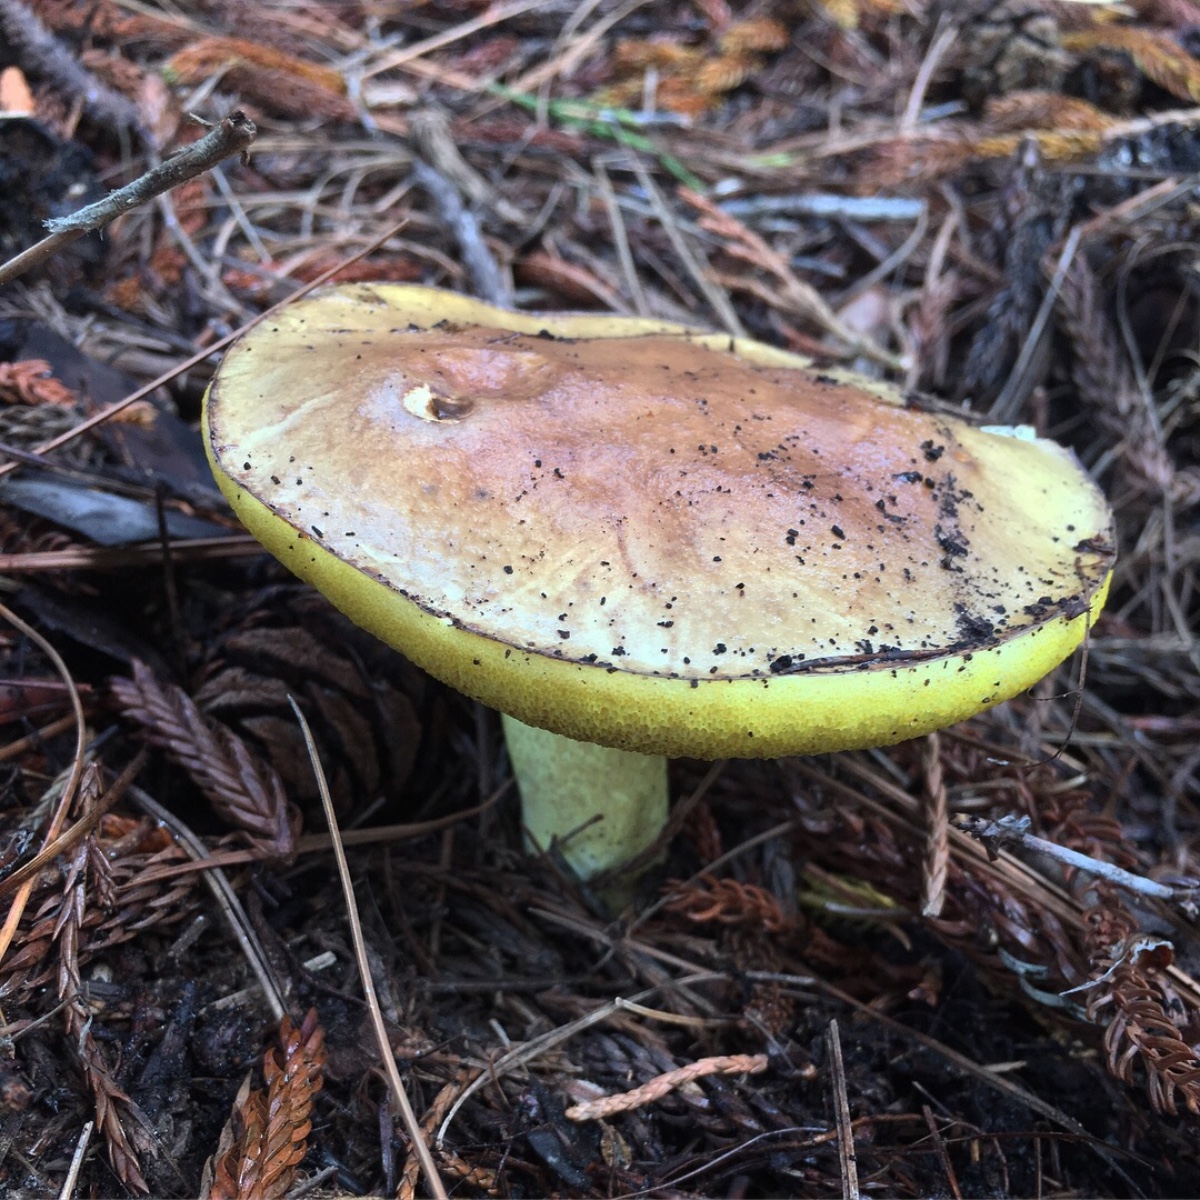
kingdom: Fungi
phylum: Basidiomycota
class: Agaricomycetes
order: Boletales
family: Suillaceae
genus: Suillus
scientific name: Suillus granulatus
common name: kornet slimrørhat
